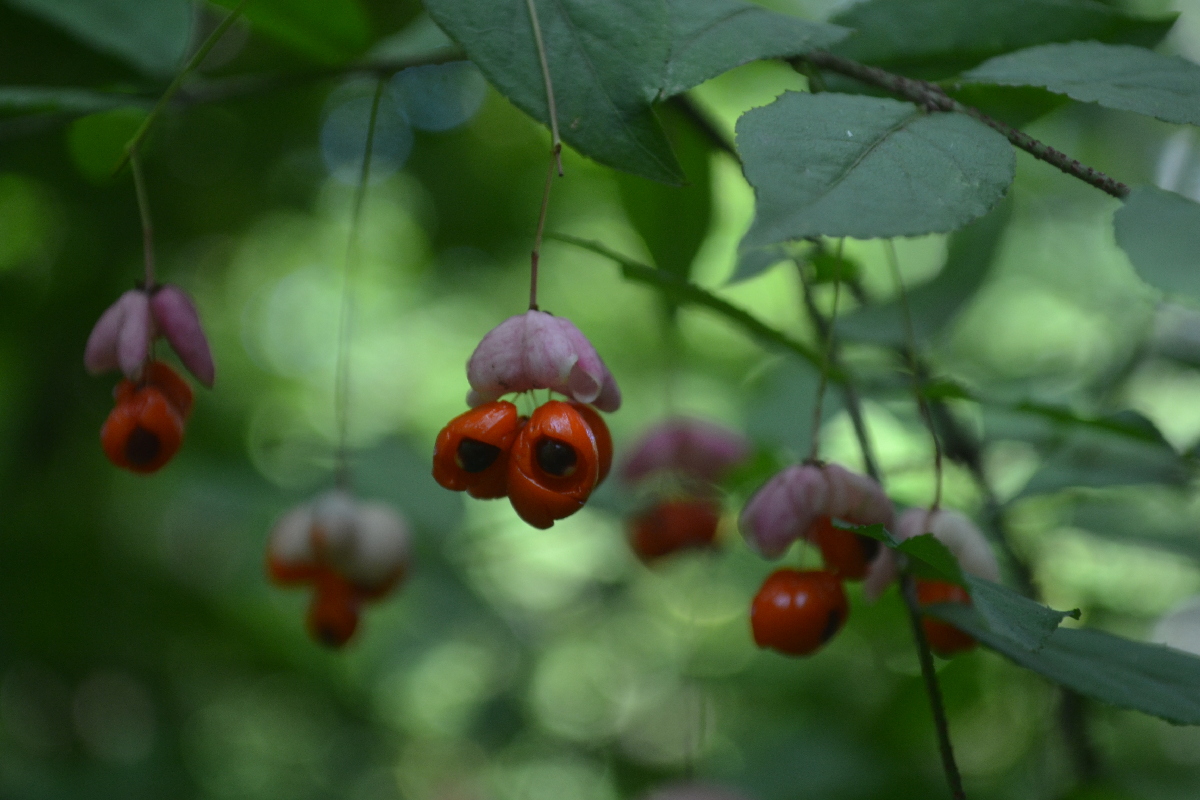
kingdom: Plantae
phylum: Tracheophyta
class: Magnoliopsida
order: Celastrales
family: Celastraceae
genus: Euonymus
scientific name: Euonymus verrucosus
